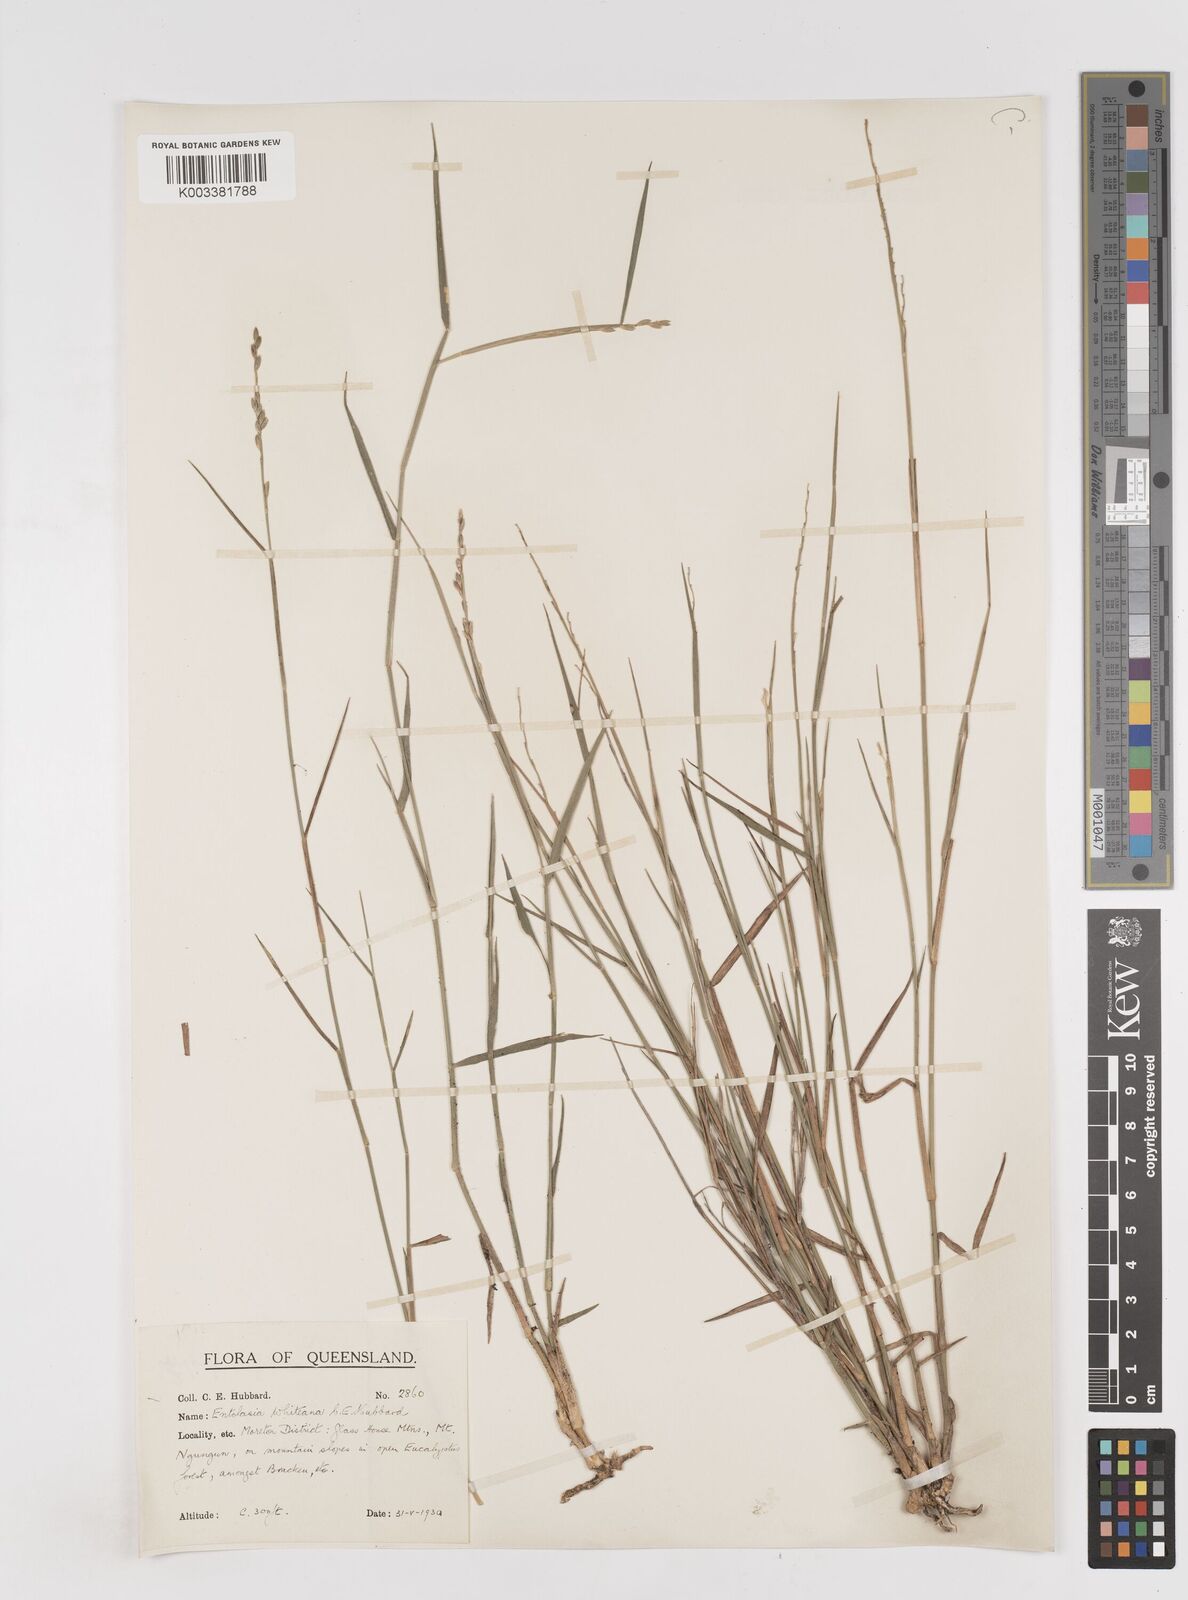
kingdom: Plantae
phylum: Tracheophyta
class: Liliopsida
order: Poales
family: Poaceae
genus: Entolasia
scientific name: Entolasia whiteana
